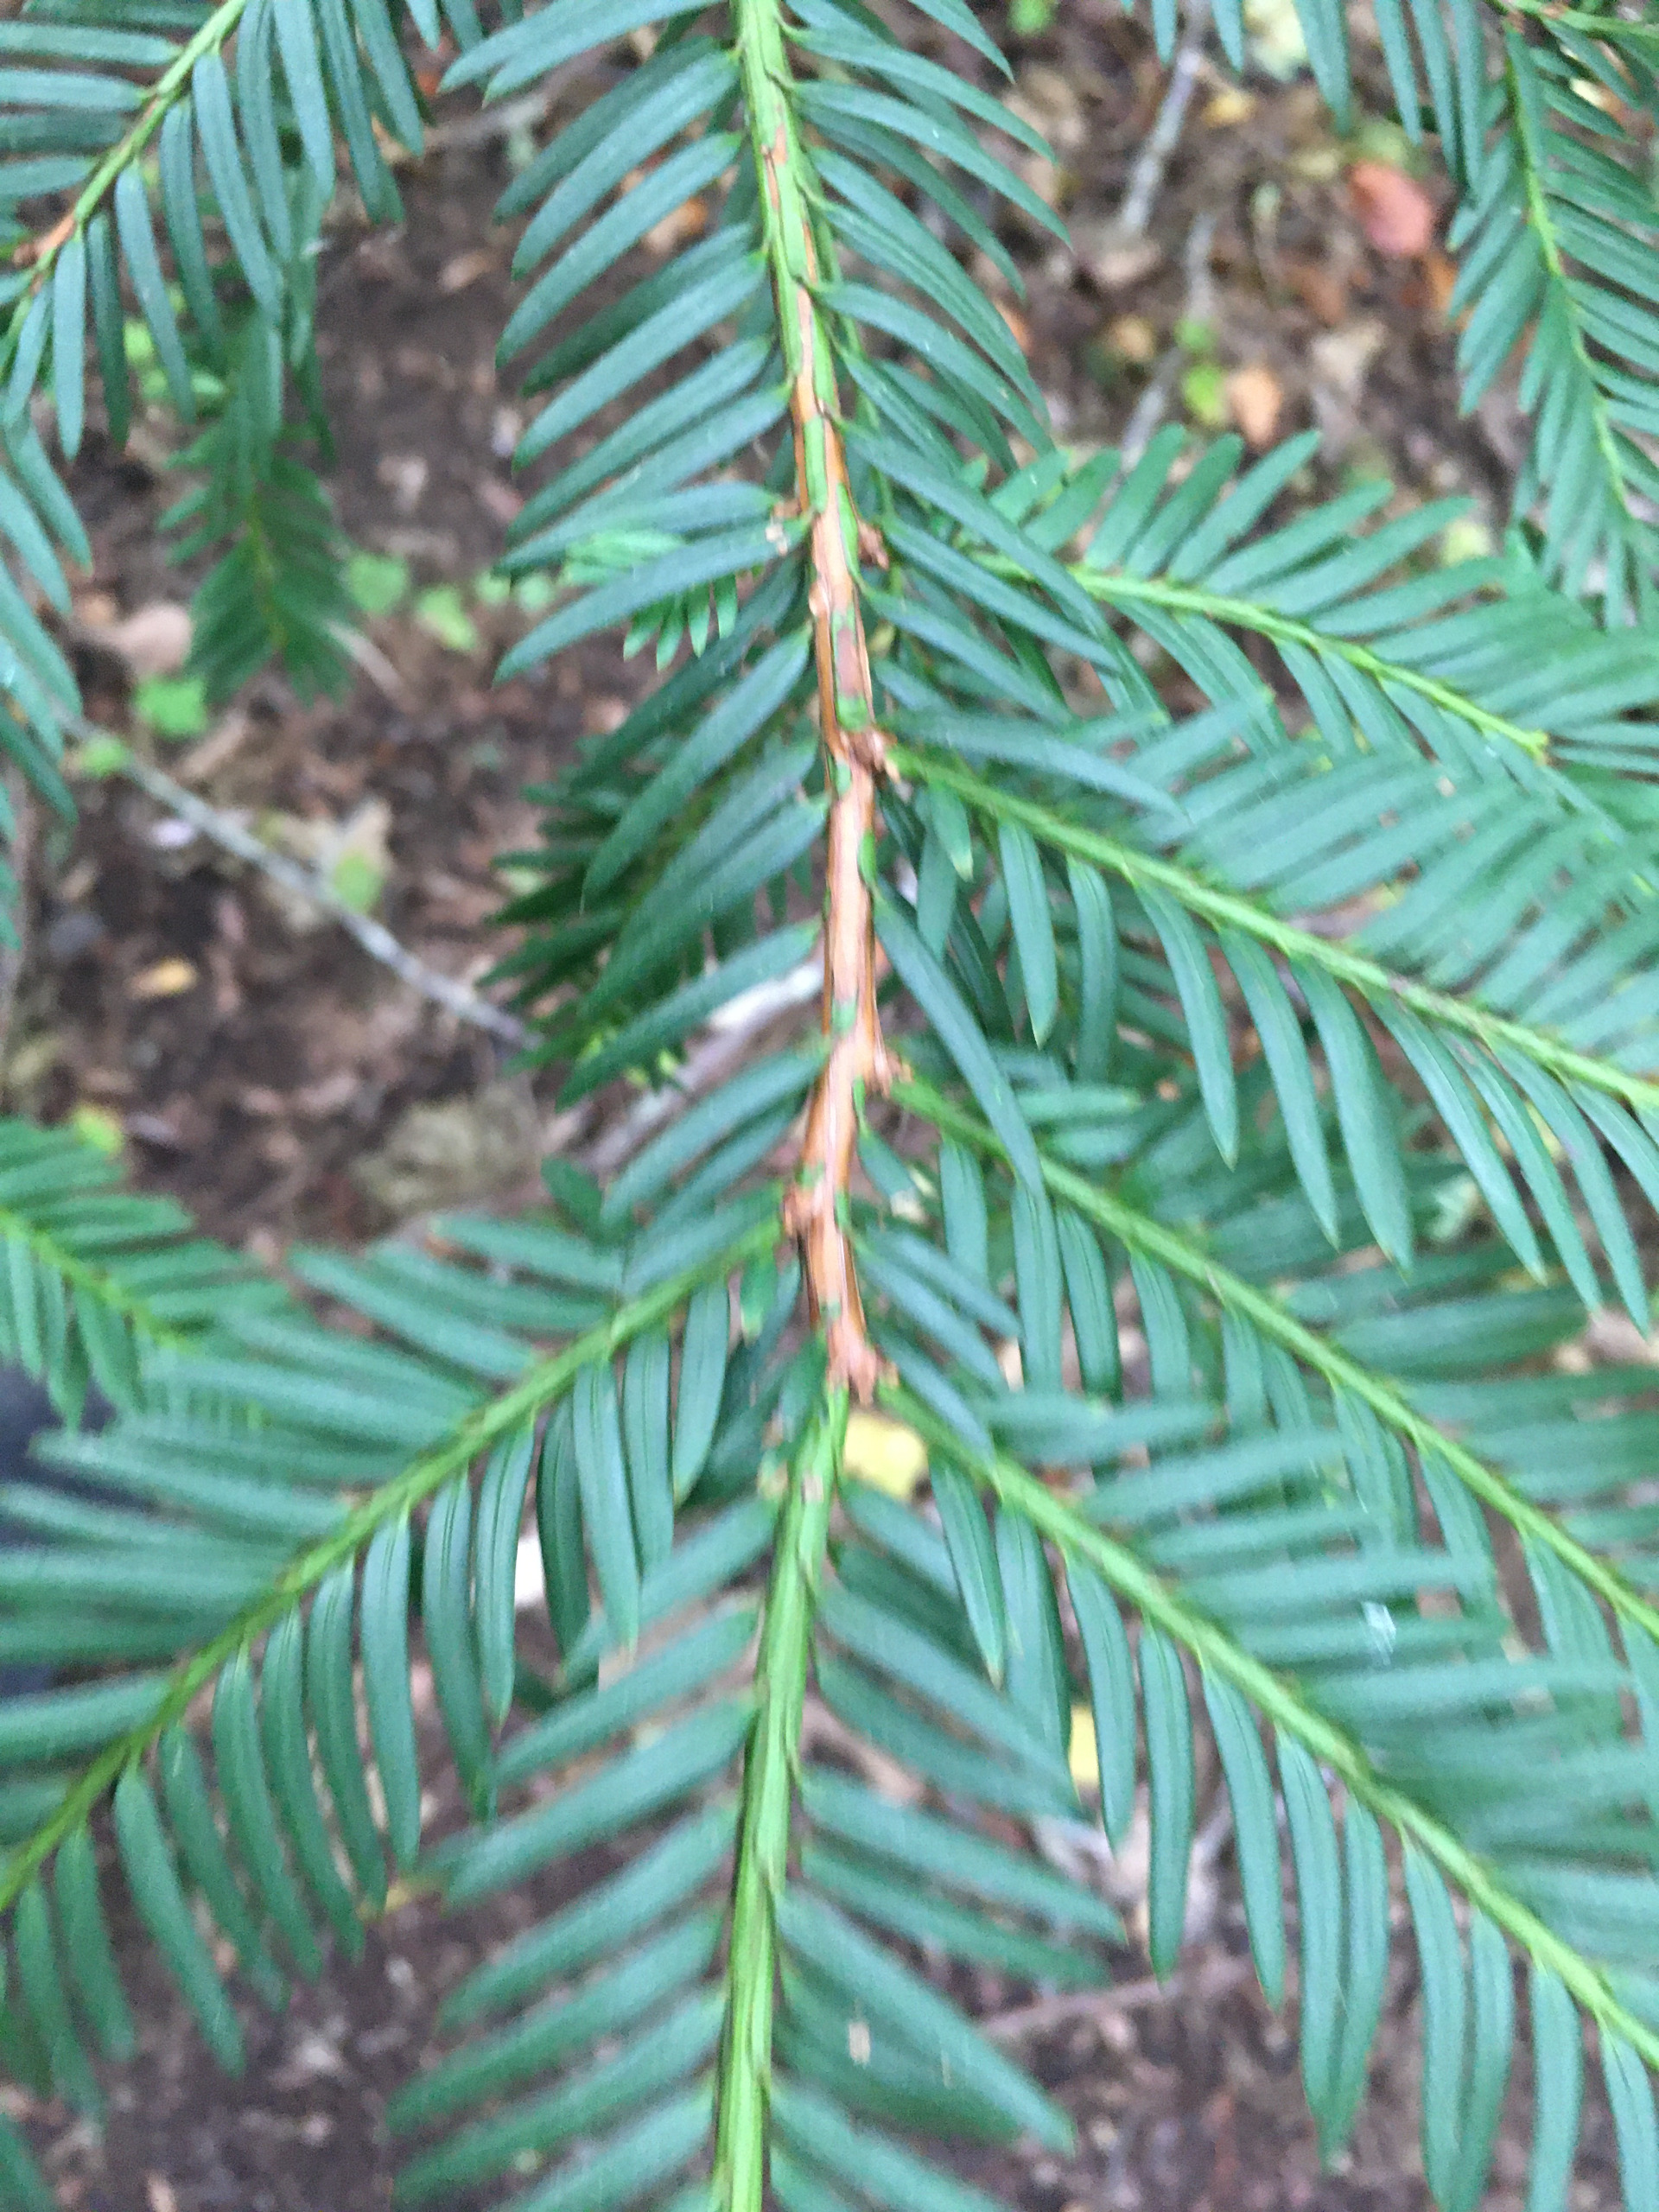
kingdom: Plantae
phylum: Tracheophyta
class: Pinopsida
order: Pinales
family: Taxaceae
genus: Taxus
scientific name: Taxus baccata
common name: Almindelig taks
